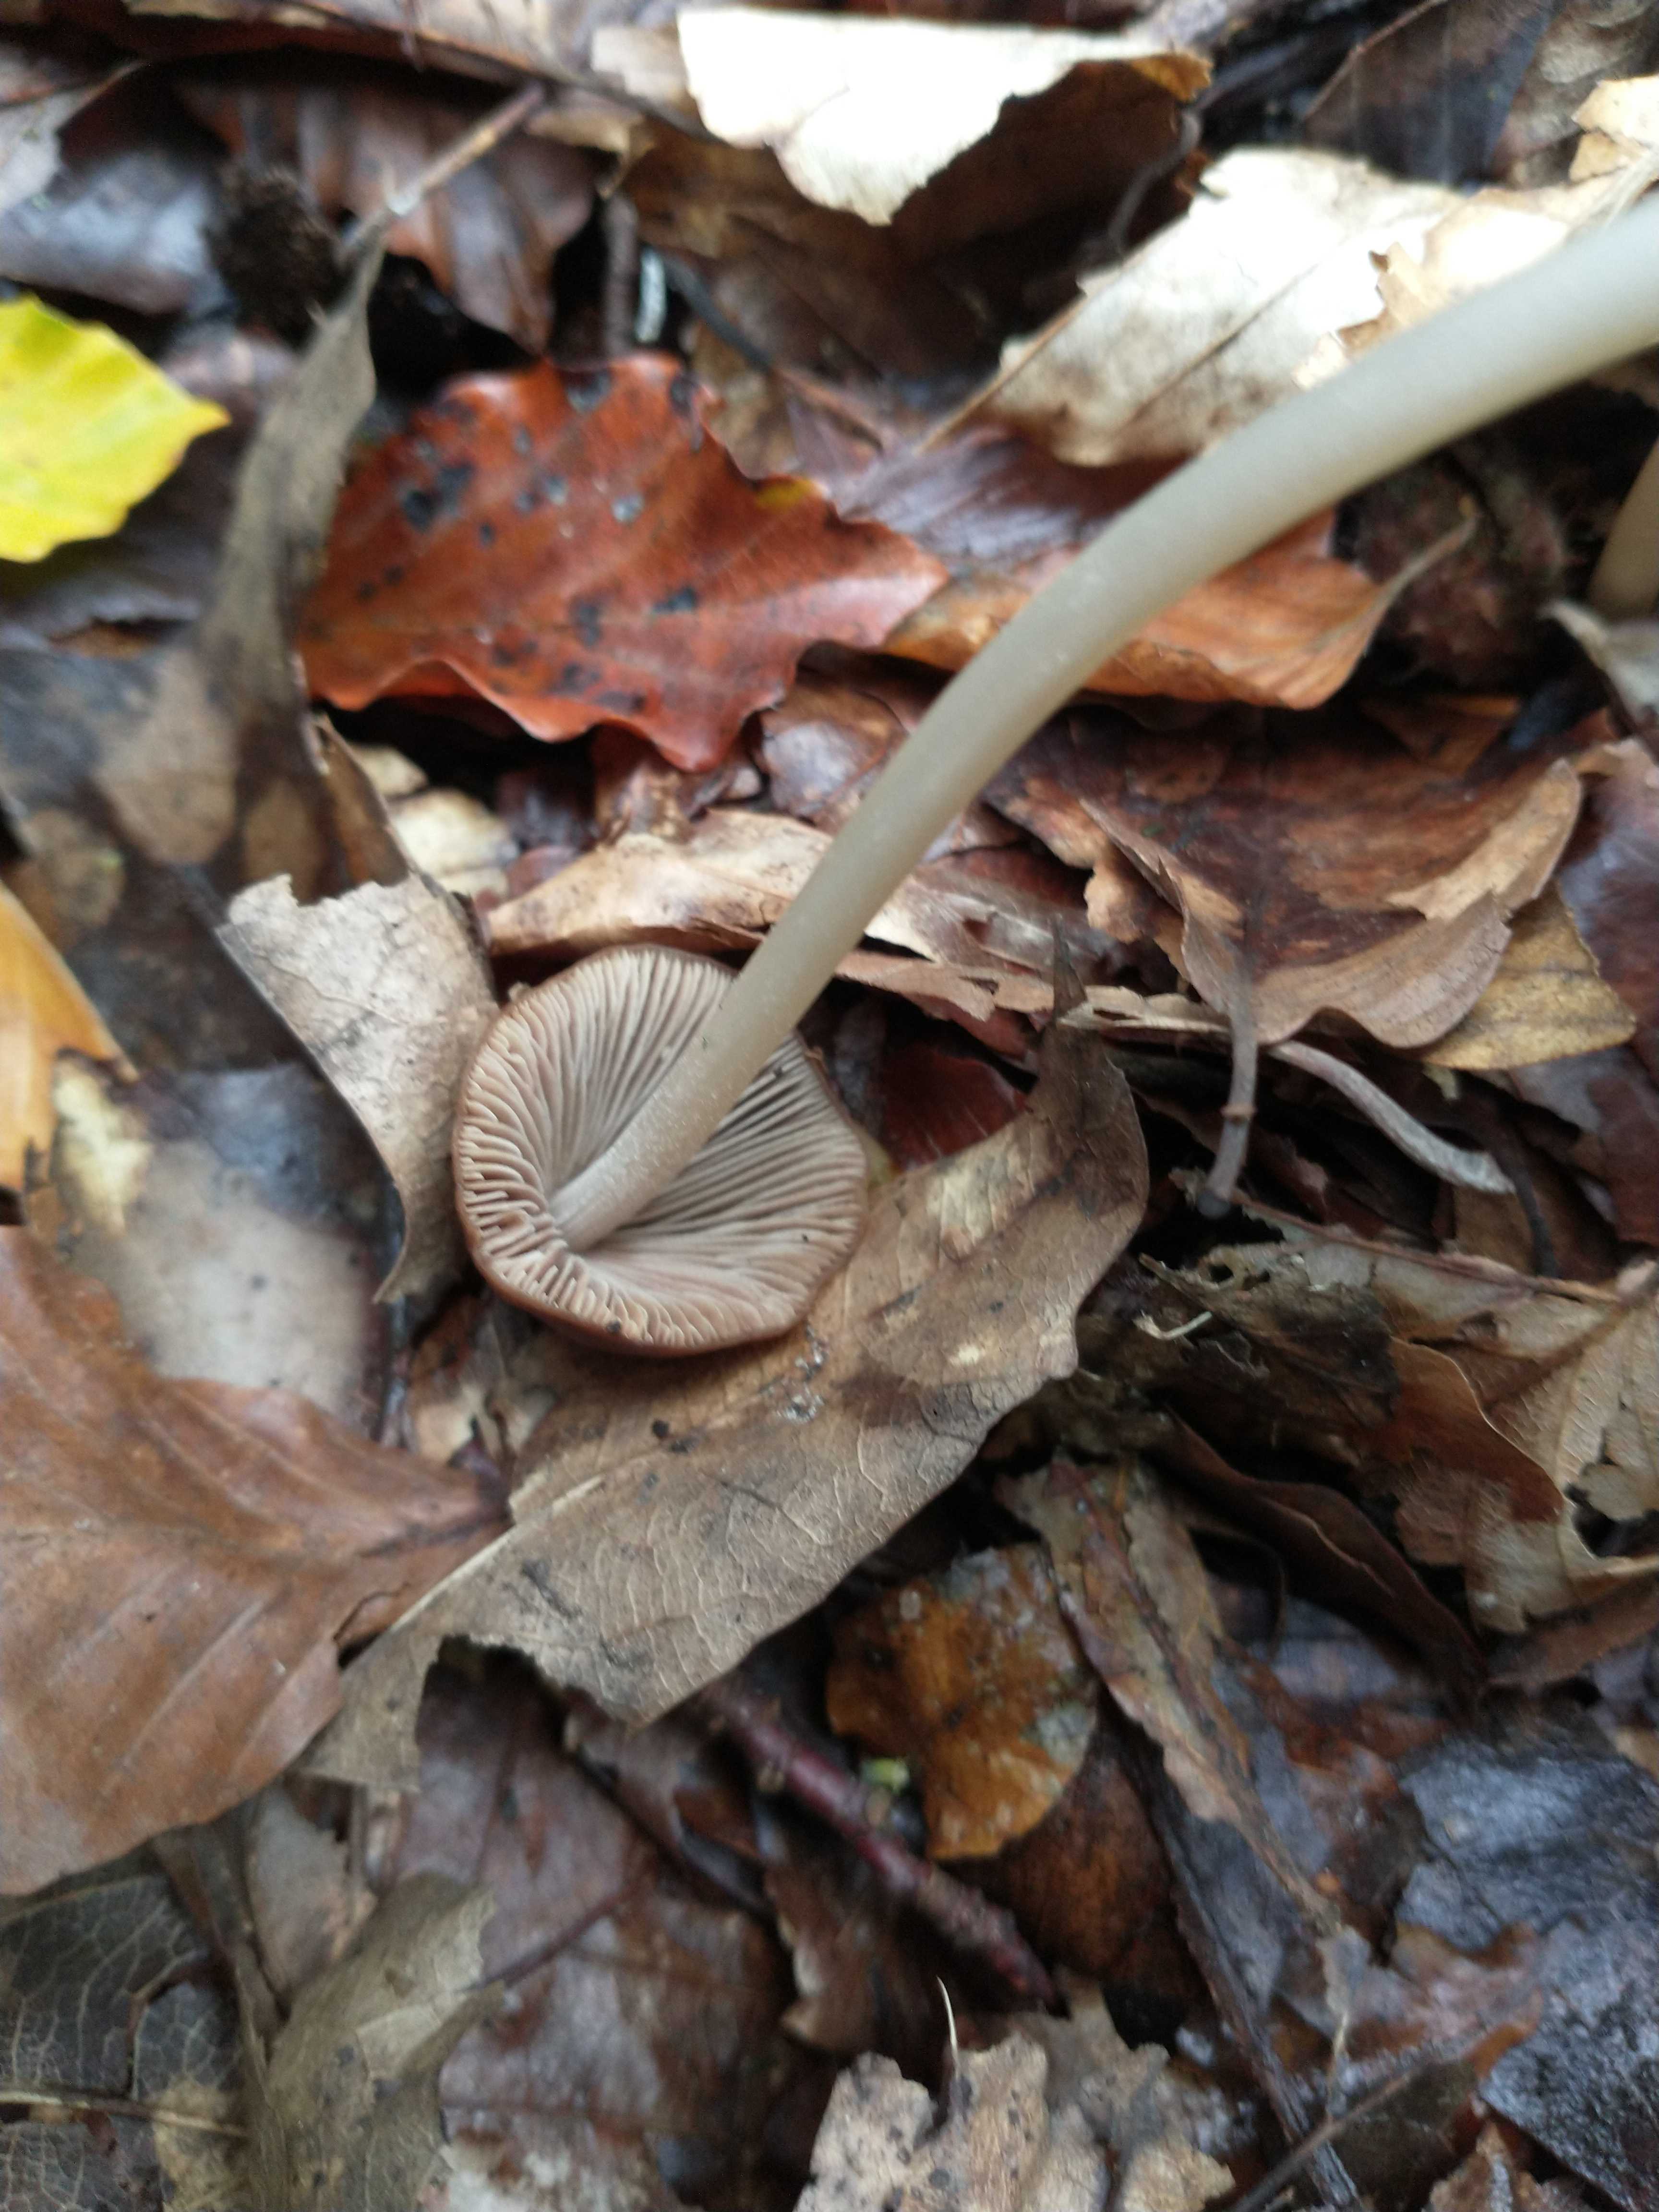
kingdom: Fungi
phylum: Basidiomycota
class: Agaricomycetes
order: Agaricales
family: Psathyrellaceae
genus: Parasola
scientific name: Parasola conopilea
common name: kegle-hjulhat
